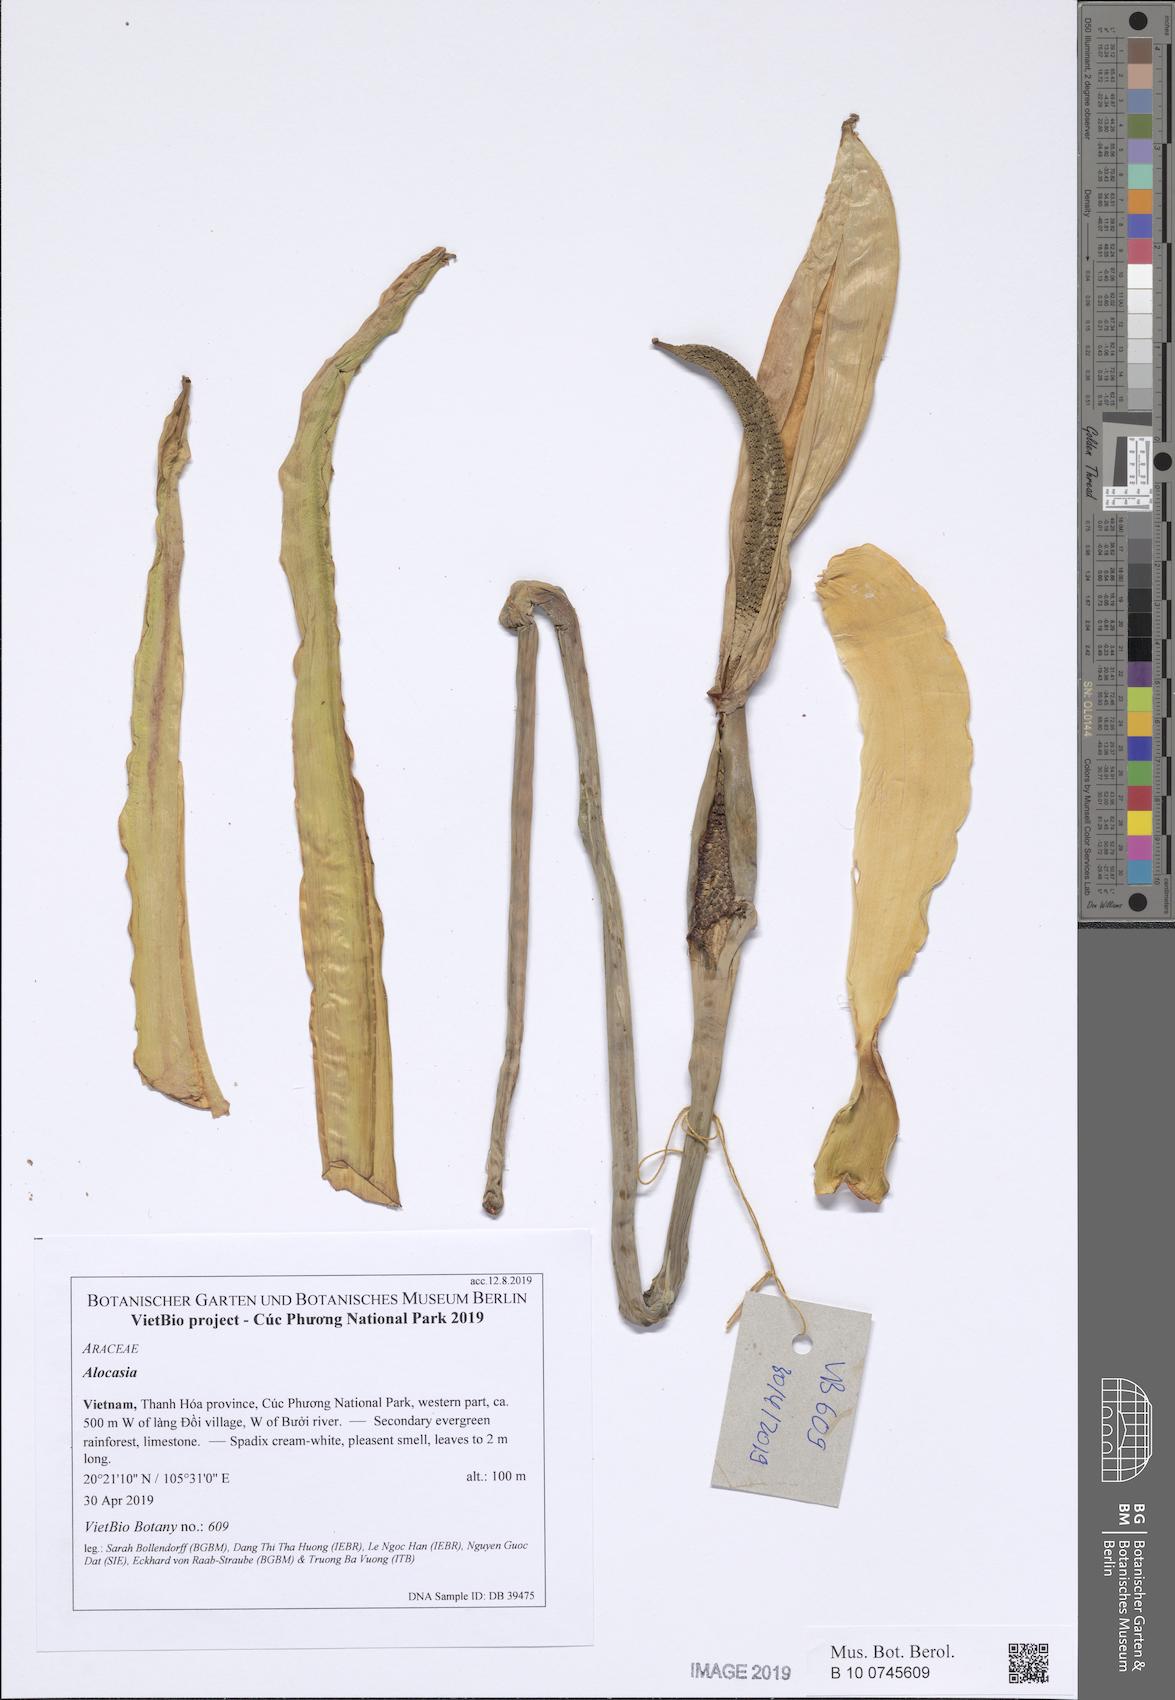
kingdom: Plantae
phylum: Tracheophyta
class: Liliopsida
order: Alismatales
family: Araceae
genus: Leucocasia
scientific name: Leucocasia gigantea
